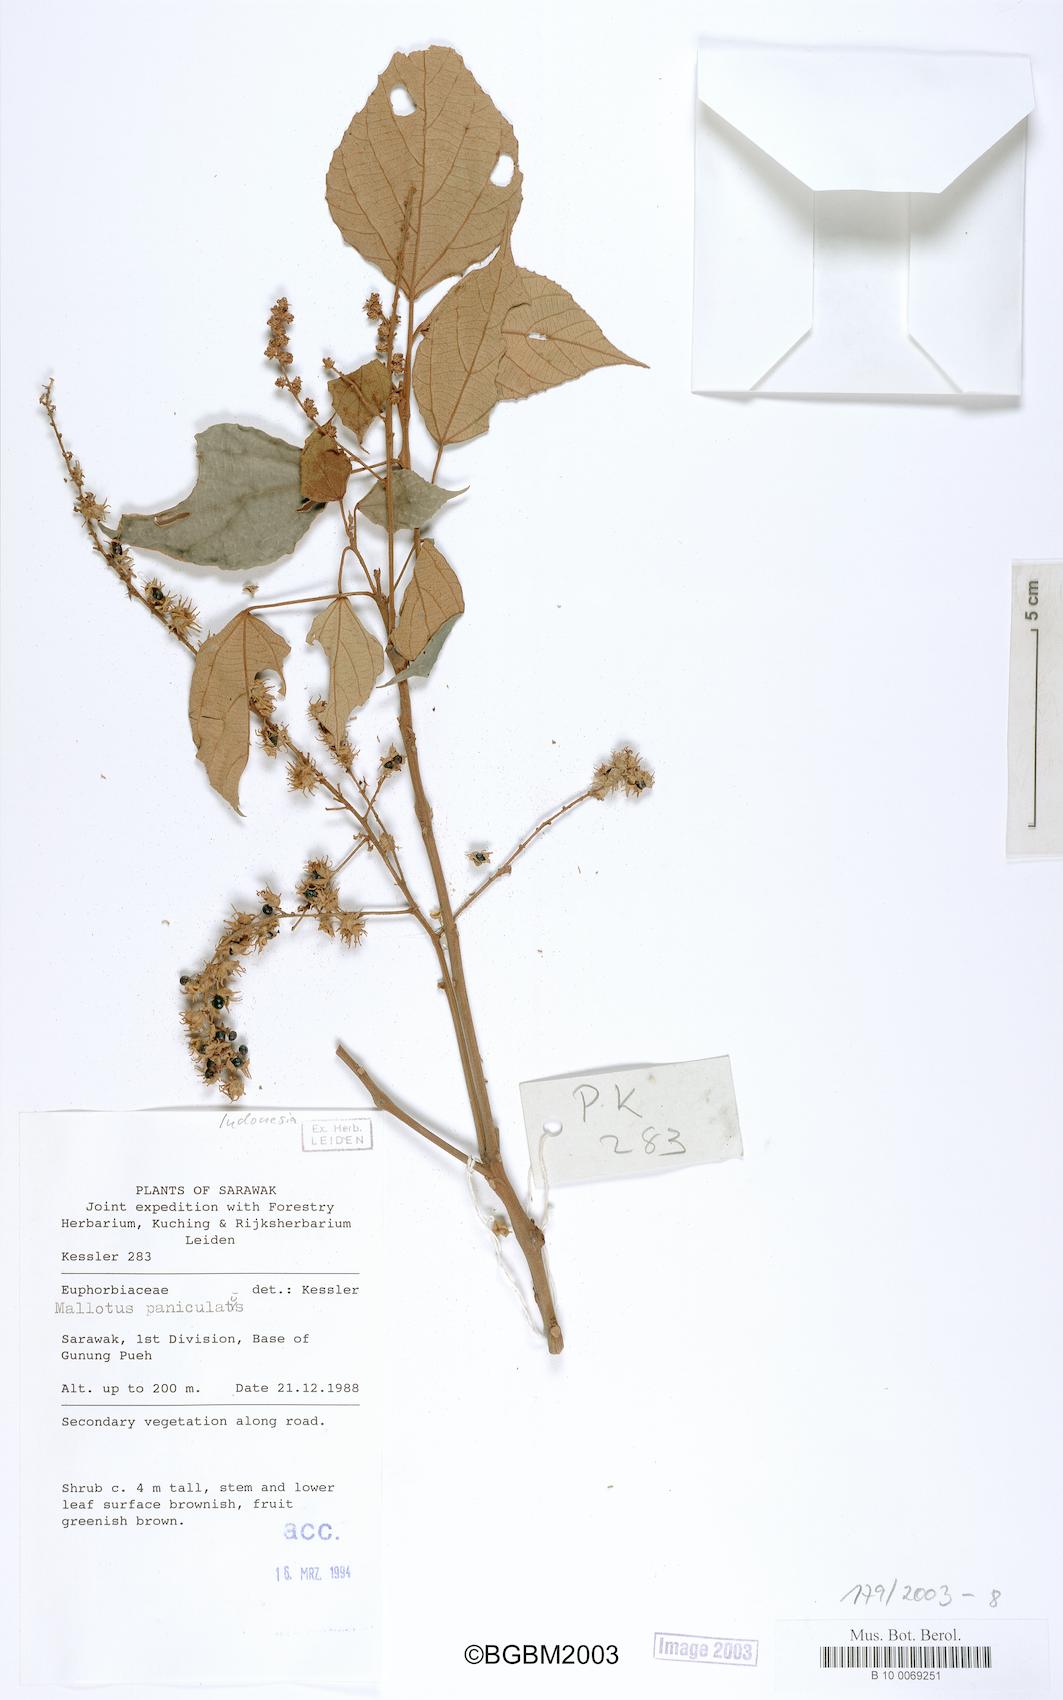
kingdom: Plantae
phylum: Tracheophyta
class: Magnoliopsida
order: Malpighiales
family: Euphorbiaceae
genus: Mallotus
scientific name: Mallotus paniculatus
